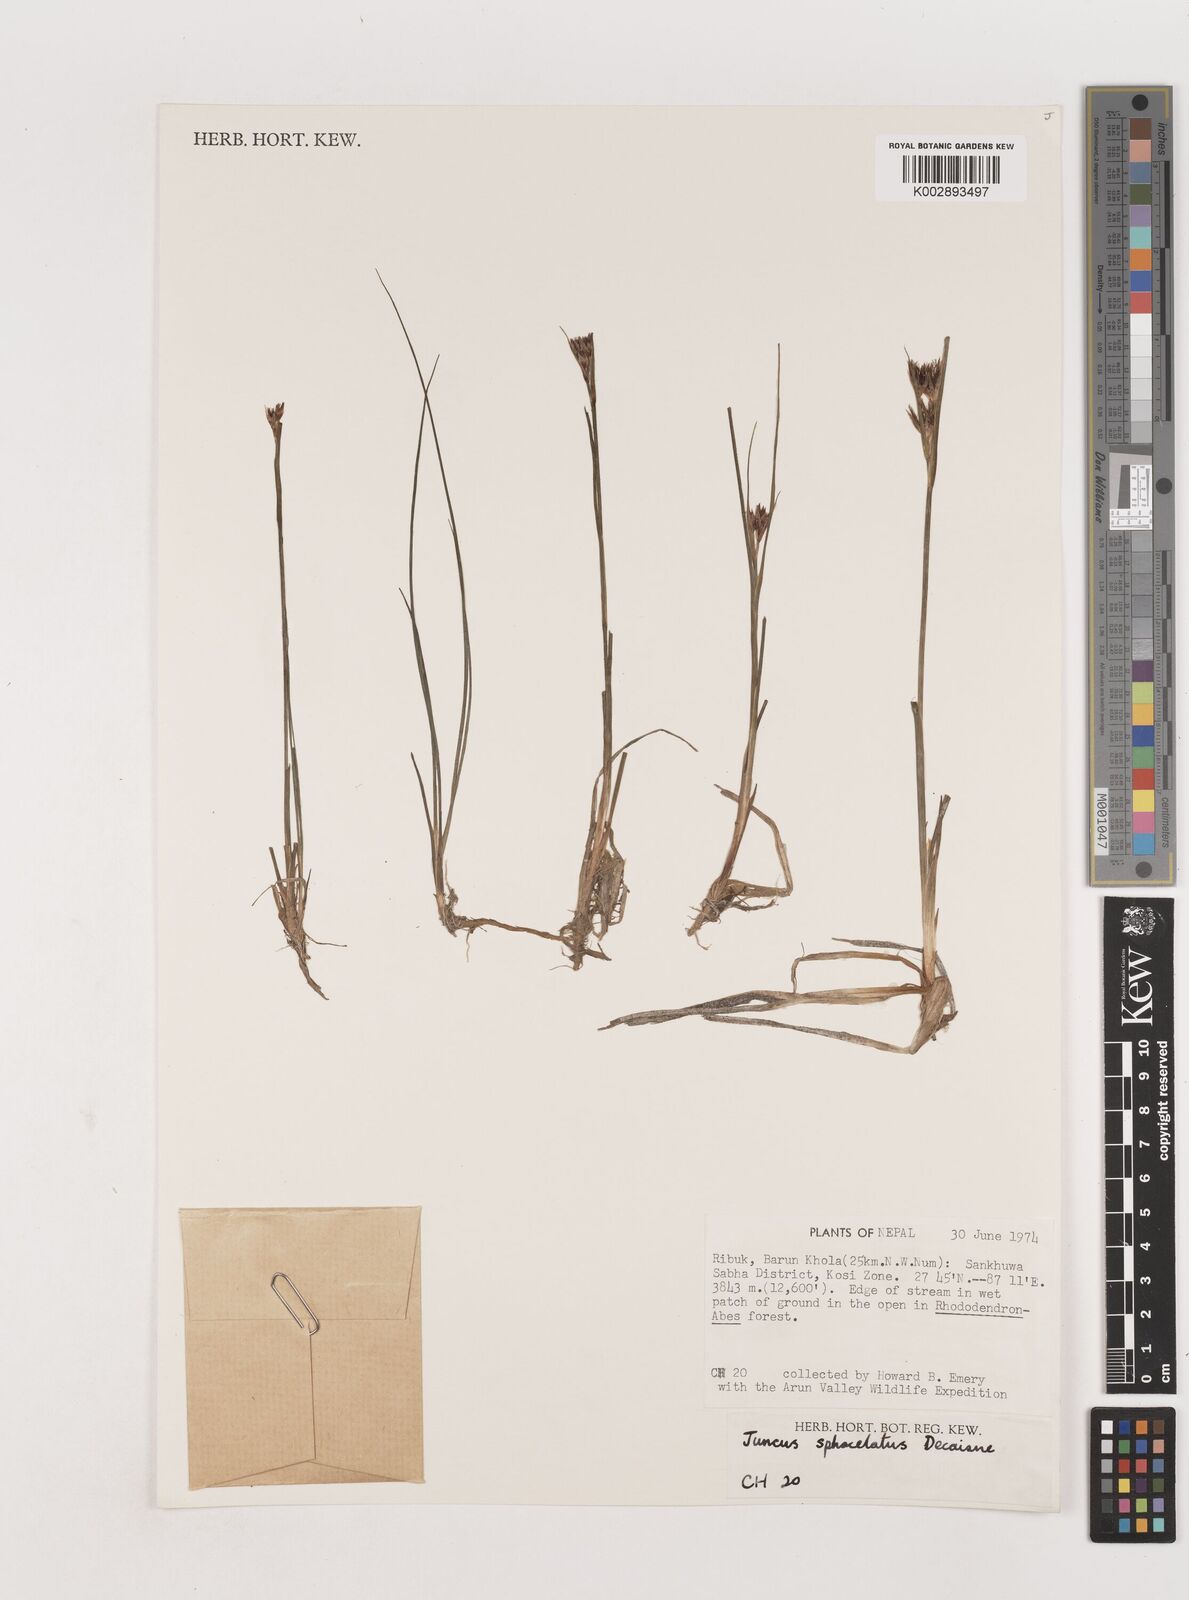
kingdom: Plantae
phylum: Tracheophyta
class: Liliopsida
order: Poales
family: Juncaceae
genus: Juncus
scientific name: Juncus sphacelatus
